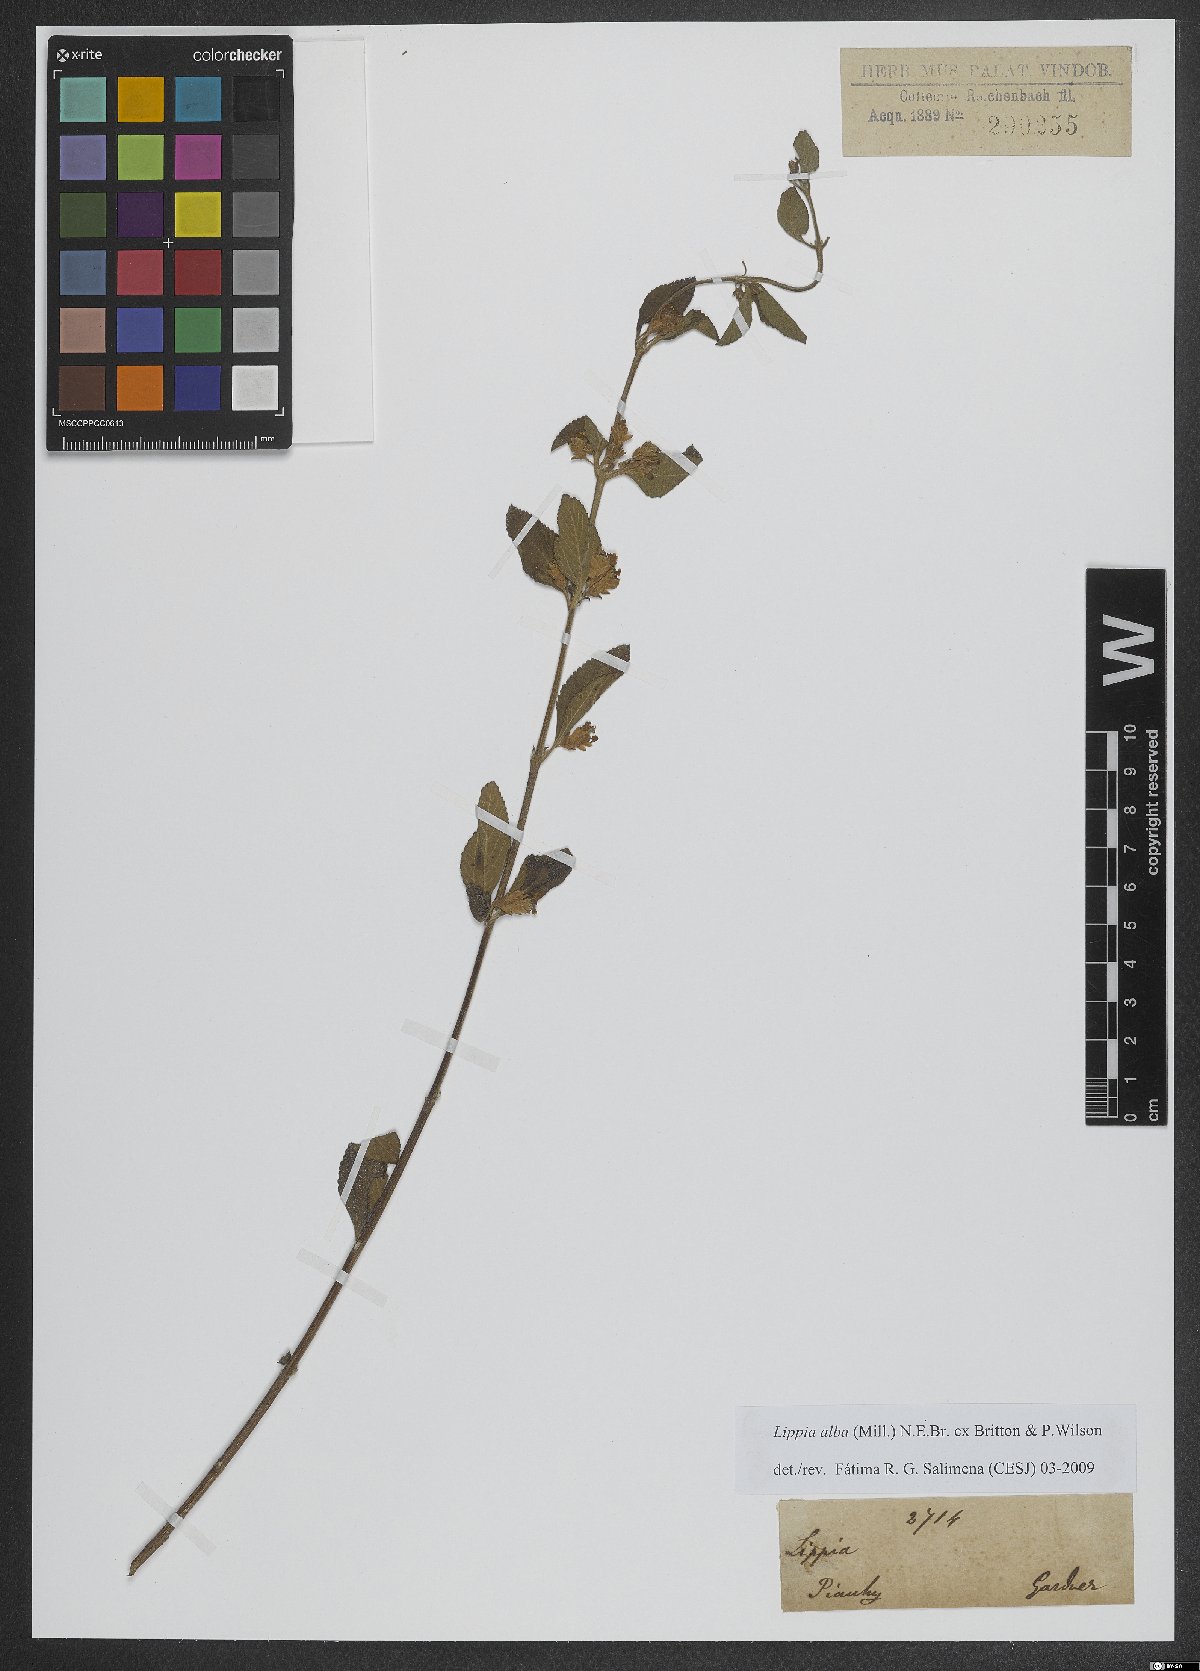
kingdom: Plantae
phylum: Tracheophyta
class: Magnoliopsida
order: Lamiales
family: Verbenaceae
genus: Lippia
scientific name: Lippia alba
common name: Bushy matgrass
